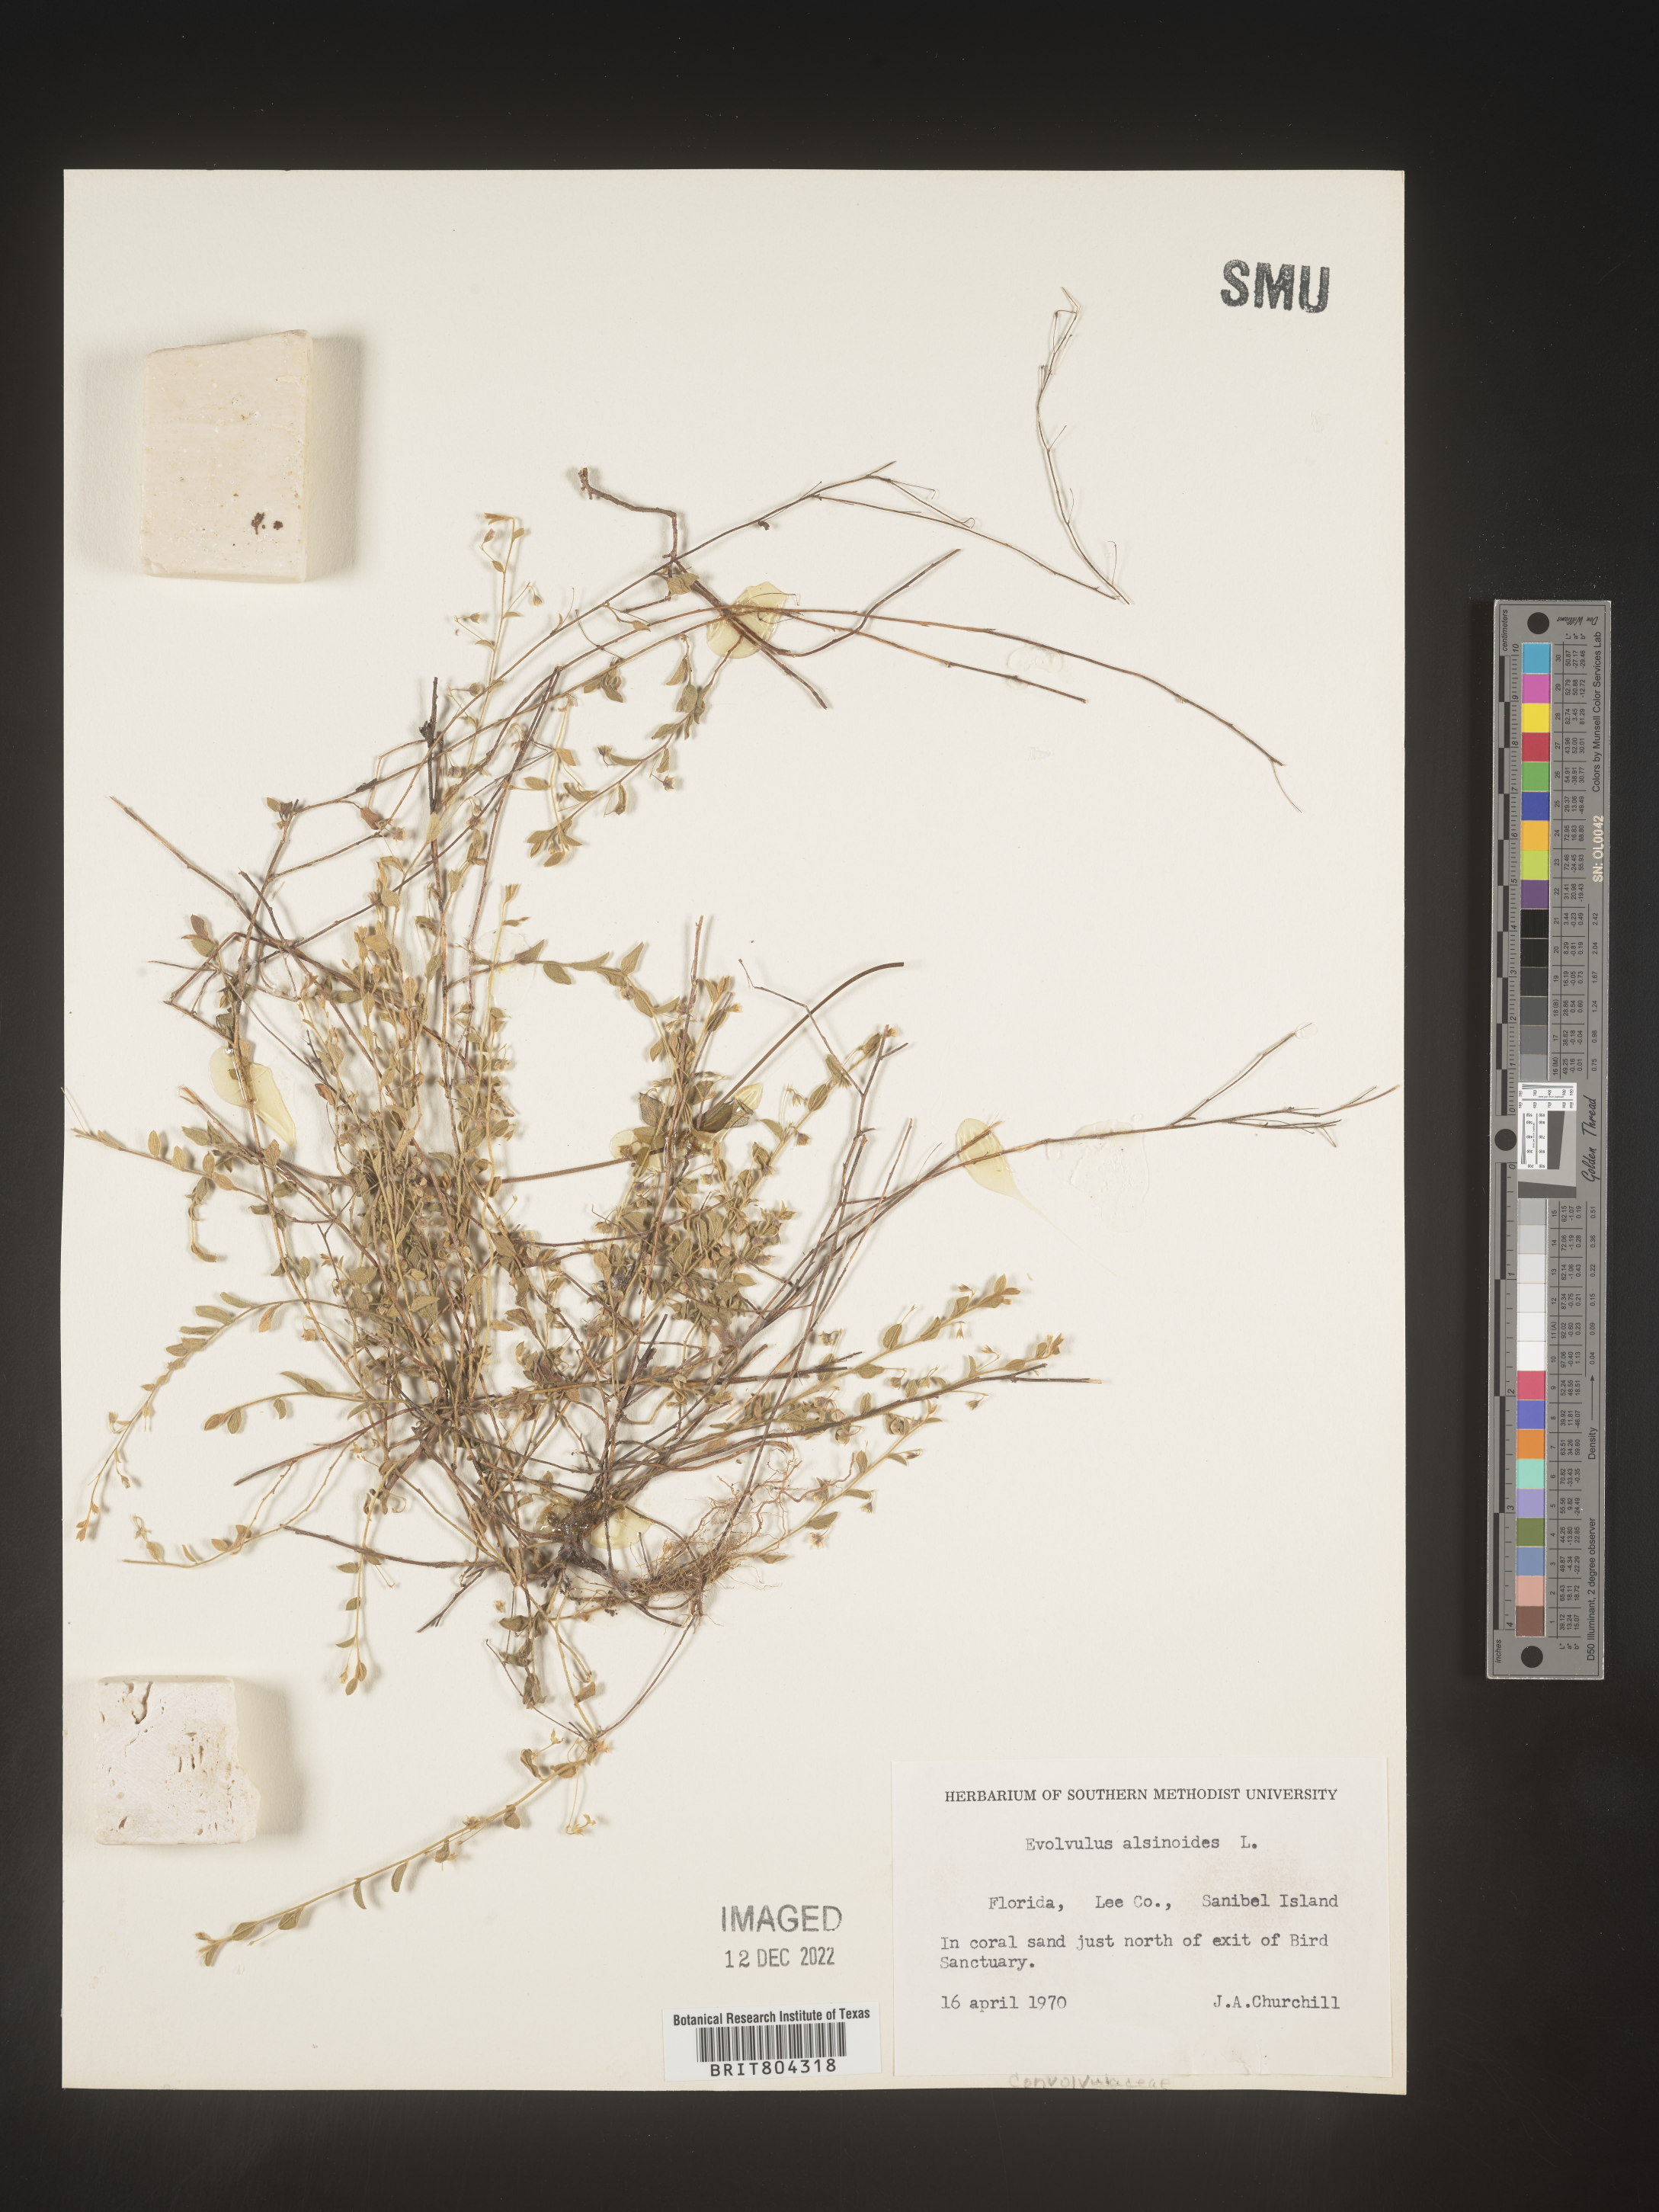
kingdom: Plantae
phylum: Tracheophyta
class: Magnoliopsida
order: Solanales
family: Convolvulaceae
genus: Evolvulus
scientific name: Evolvulus alsinoides
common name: Slender dwarf morning-glory
